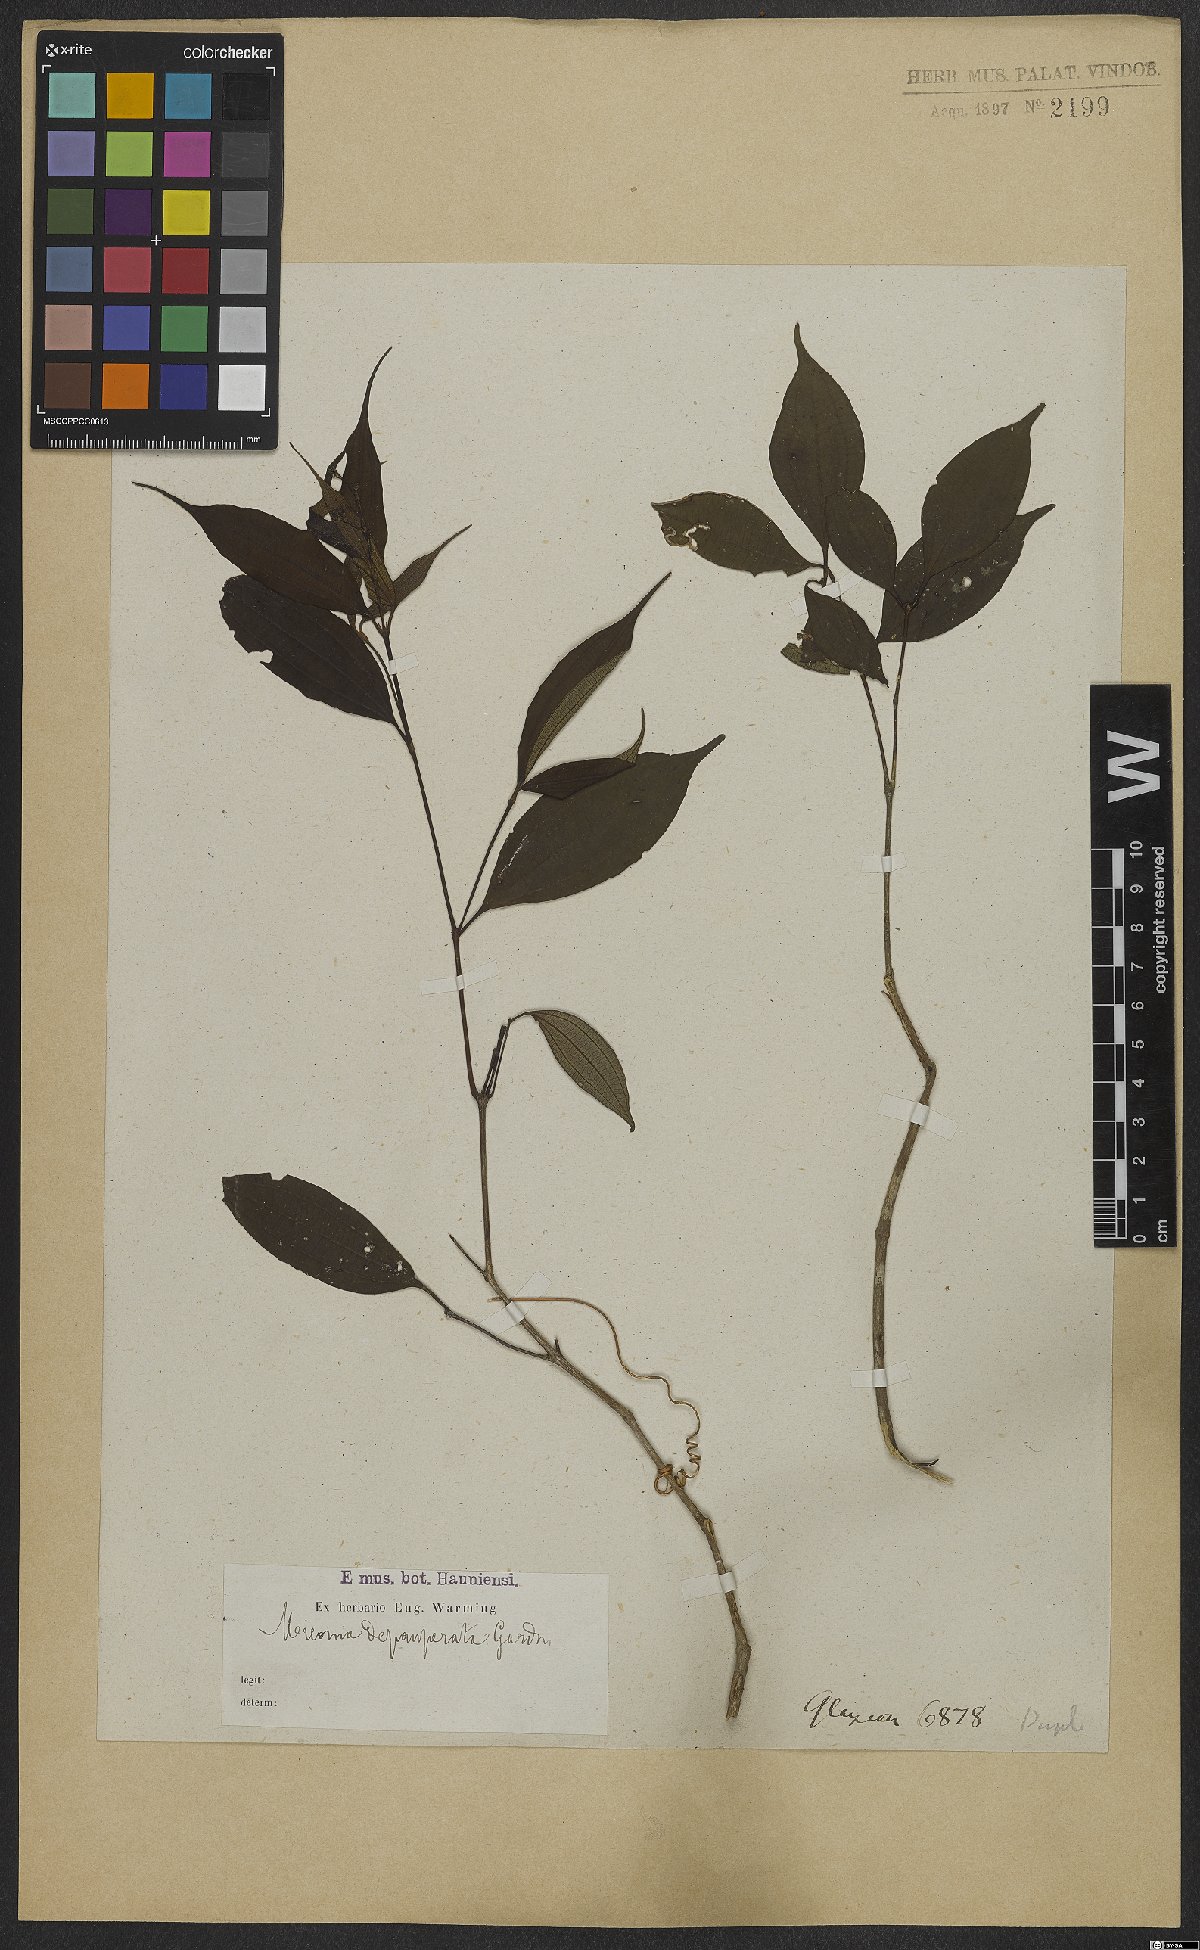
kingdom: Plantae
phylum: Tracheophyta
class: Magnoliopsida
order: Myrtales
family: Melastomataceae
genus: Miconia
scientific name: Miconia depauperata
